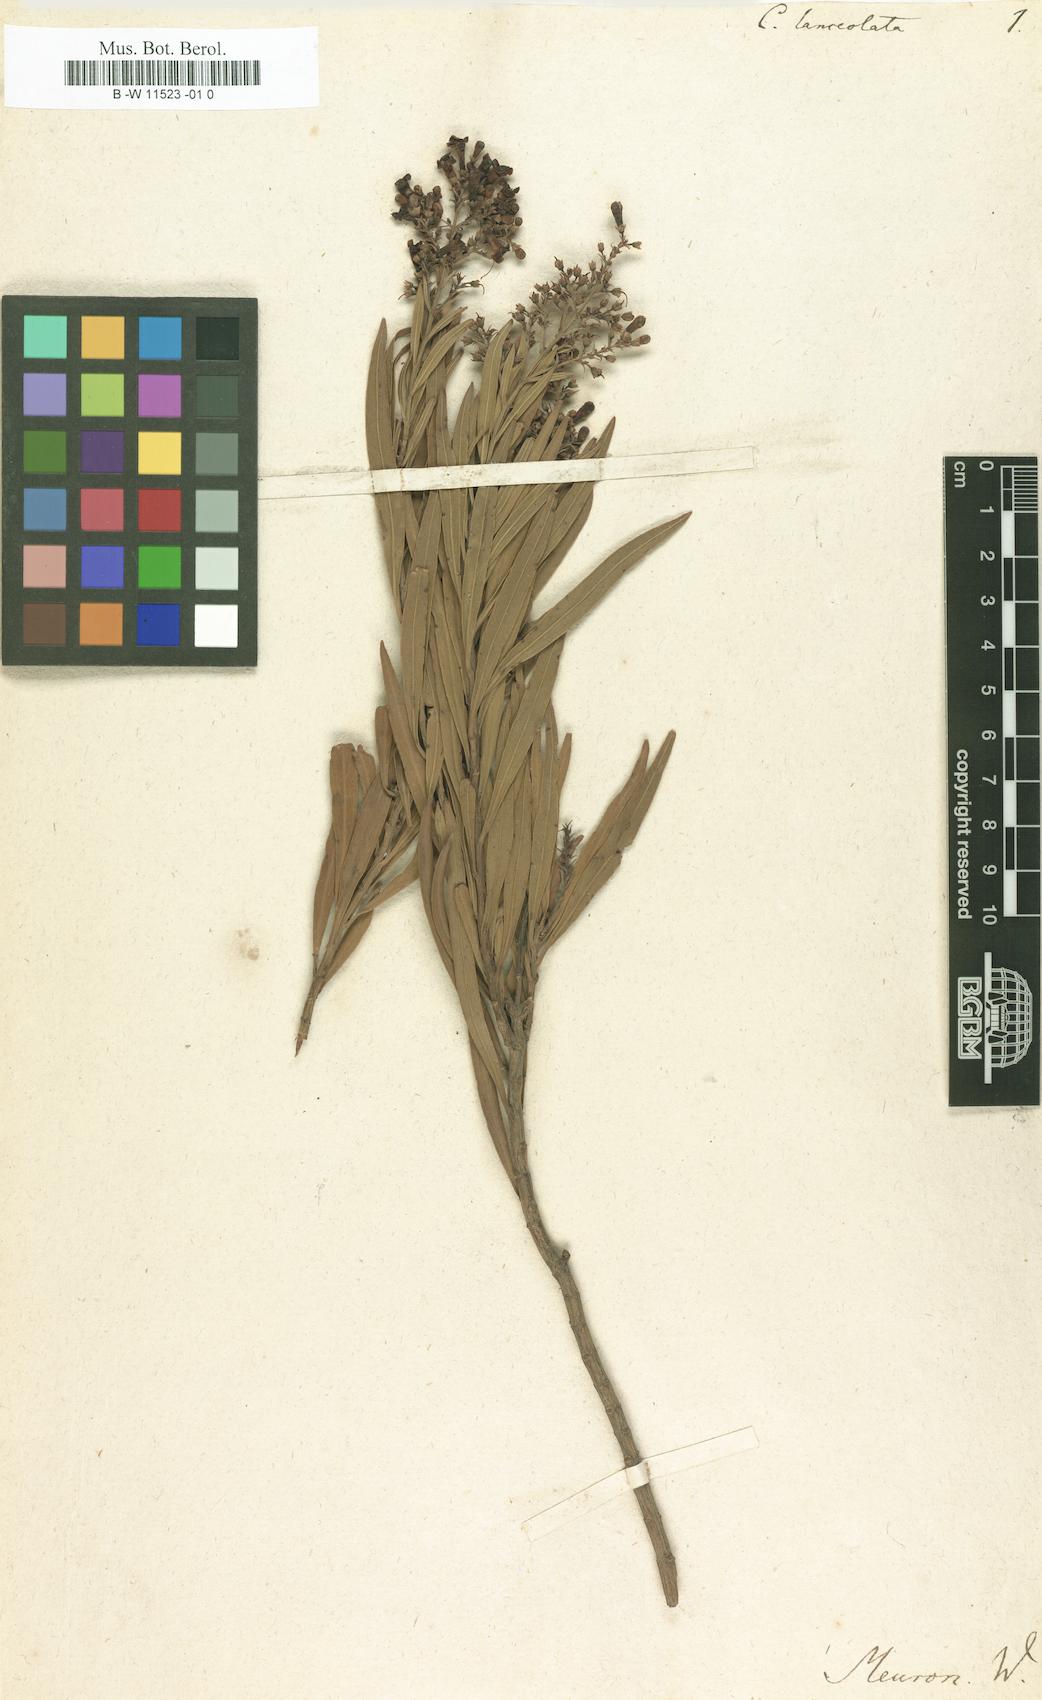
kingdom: Plantae
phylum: Tracheophyta
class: Magnoliopsida
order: Lamiales
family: Scrophulariaceae
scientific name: Scrophulariaceae
